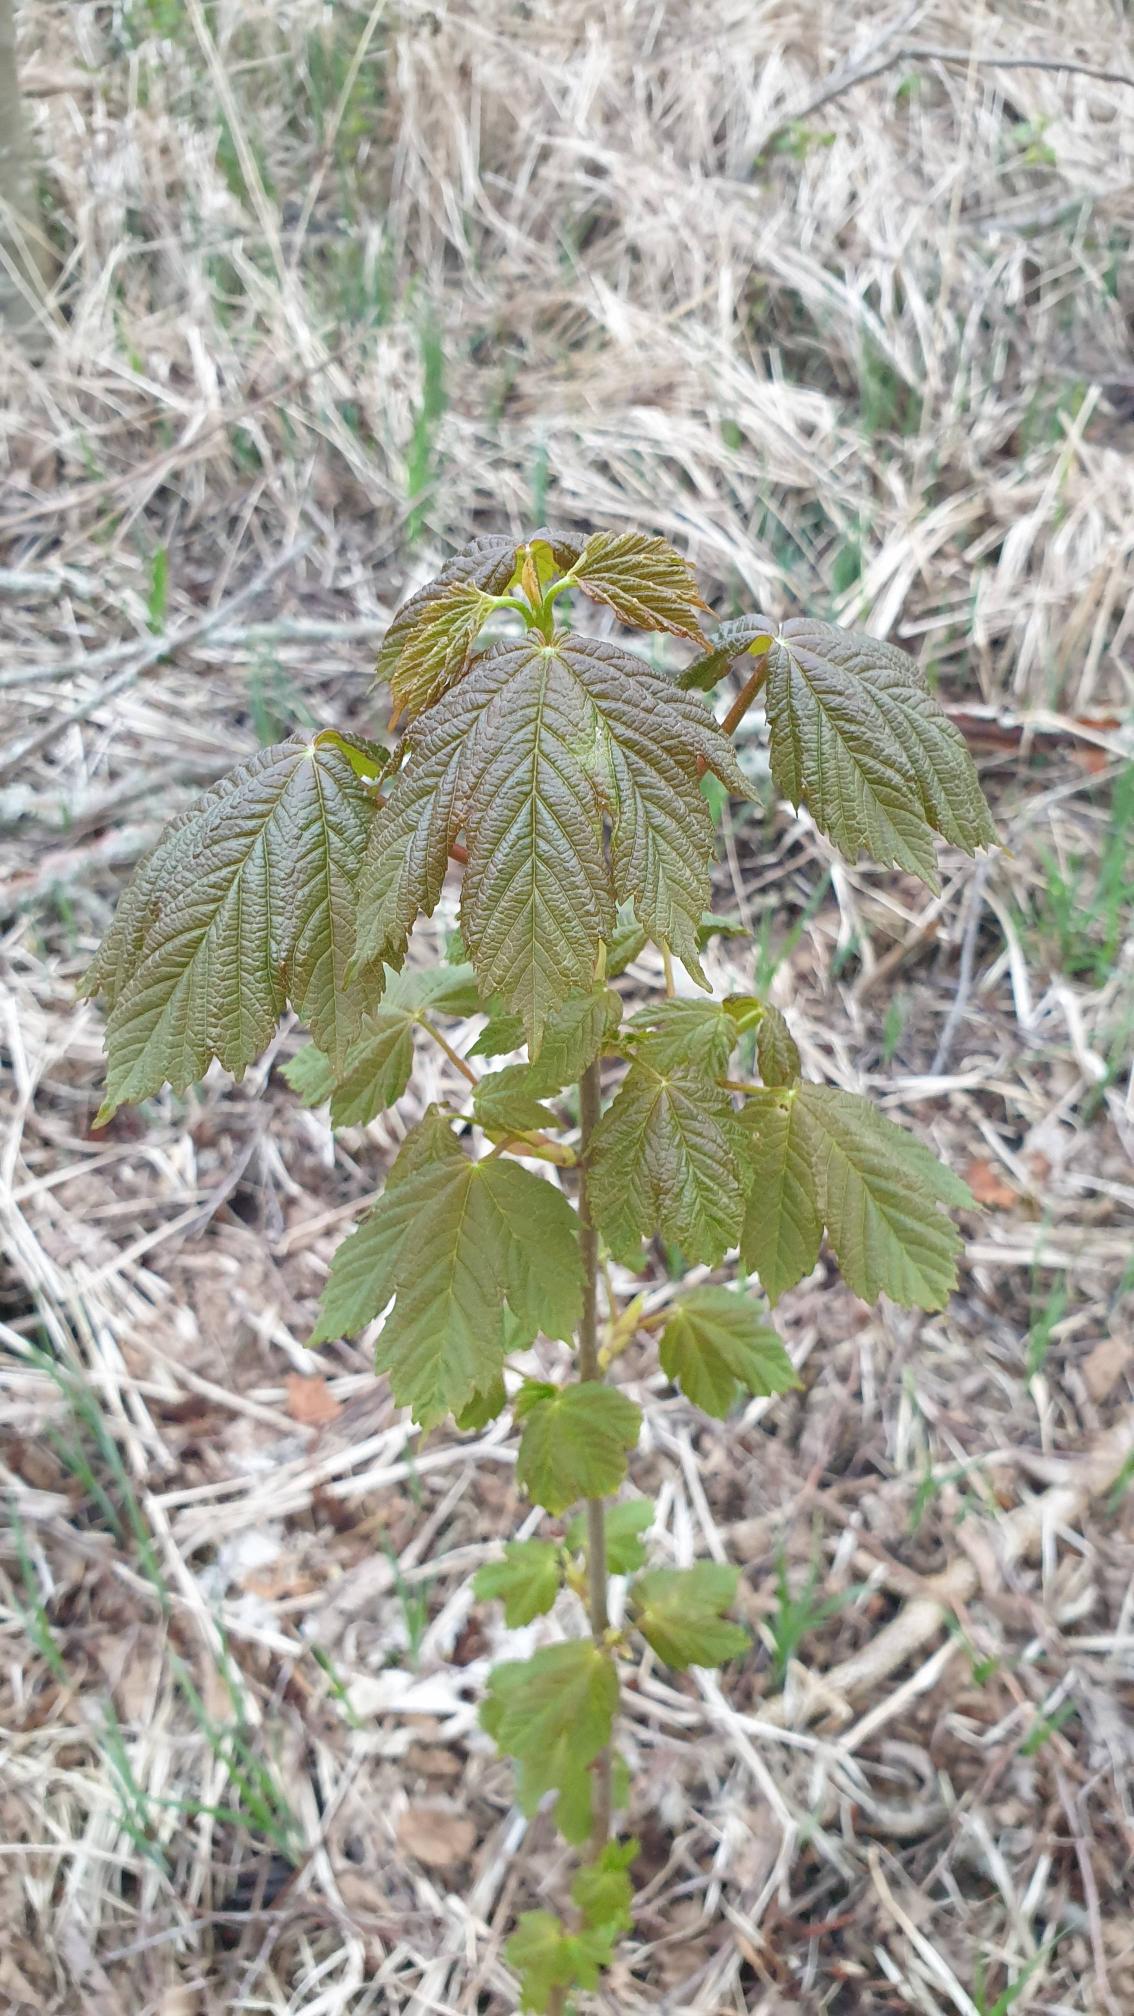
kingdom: Plantae
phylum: Tracheophyta
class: Magnoliopsida
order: Sapindales
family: Sapindaceae
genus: Acer
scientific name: Acer pseudoplatanus
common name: Ahorn
